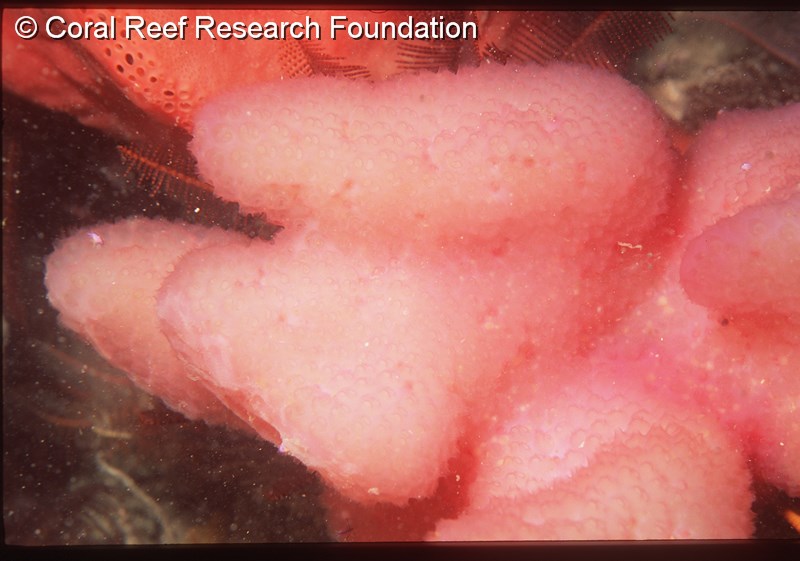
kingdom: Animalia
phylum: Chordata
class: Ascidiacea
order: Aplousobranchia
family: Holozoidae
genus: Sigillina
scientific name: Sigillina digitata
